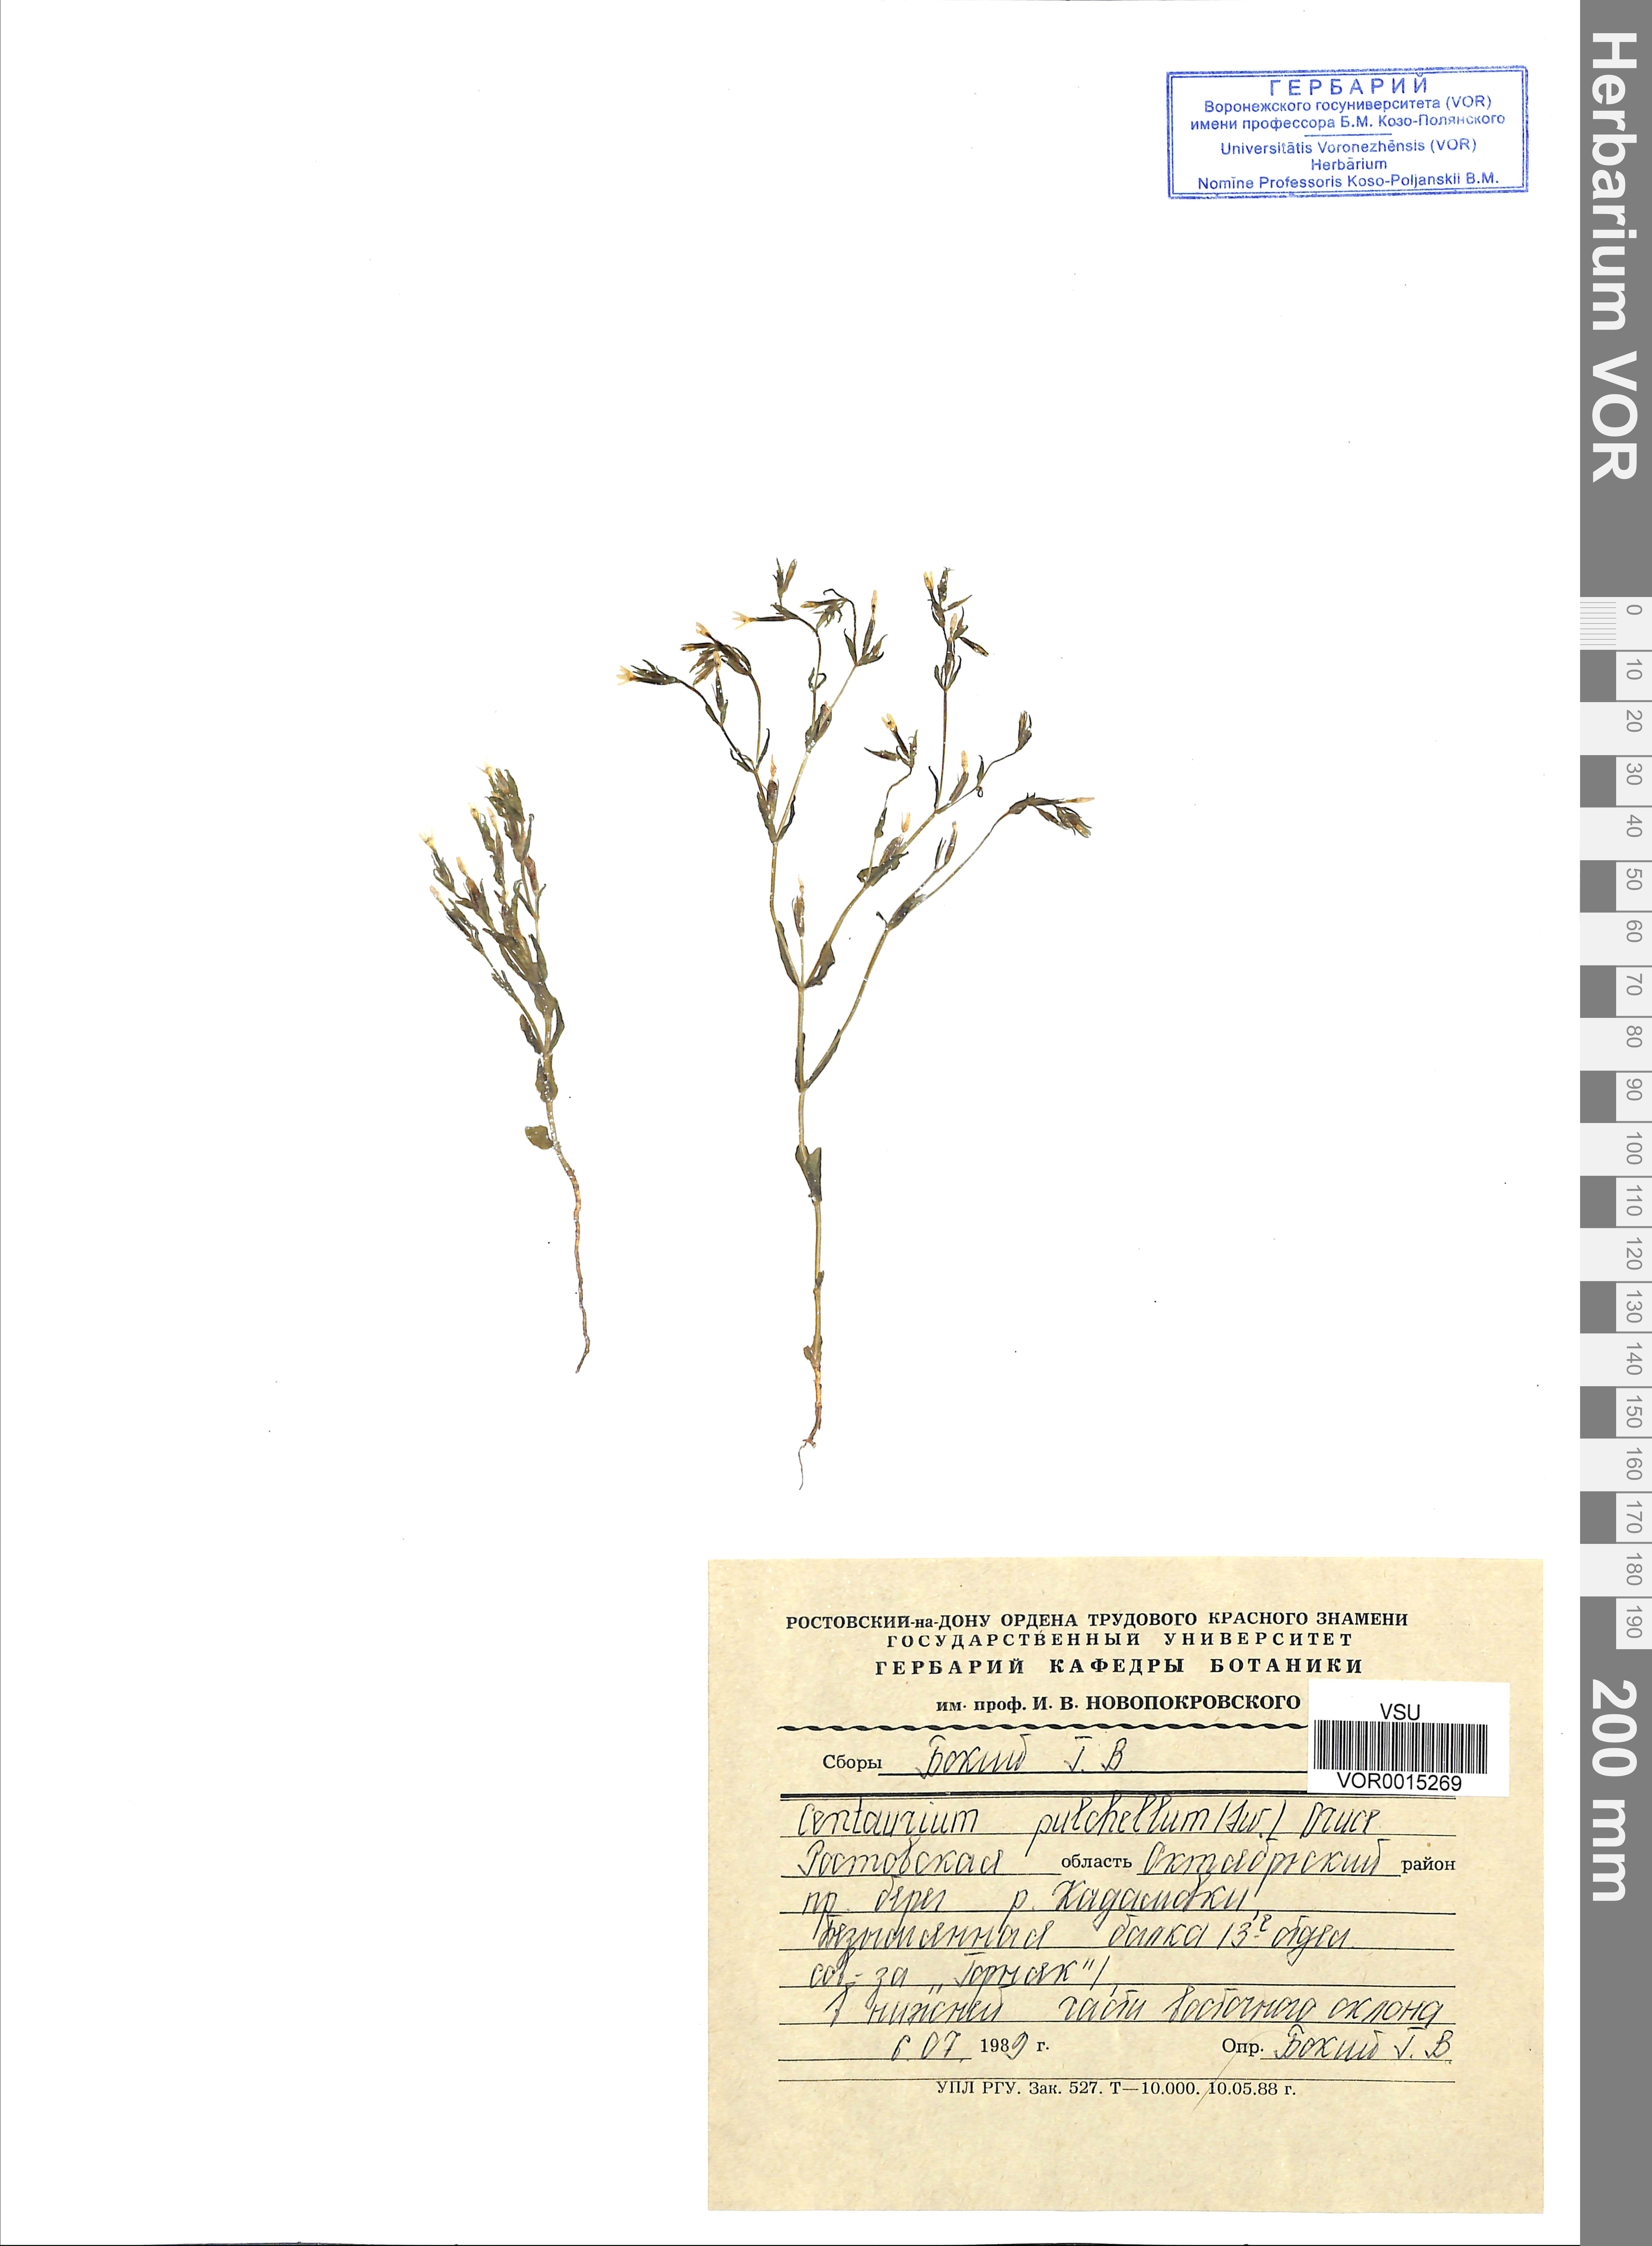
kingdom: Plantae
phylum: Tracheophyta
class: Magnoliopsida
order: Gentianales
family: Gentianaceae
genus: Centaurium
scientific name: Centaurium pulchellum
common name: Lesser centaury
